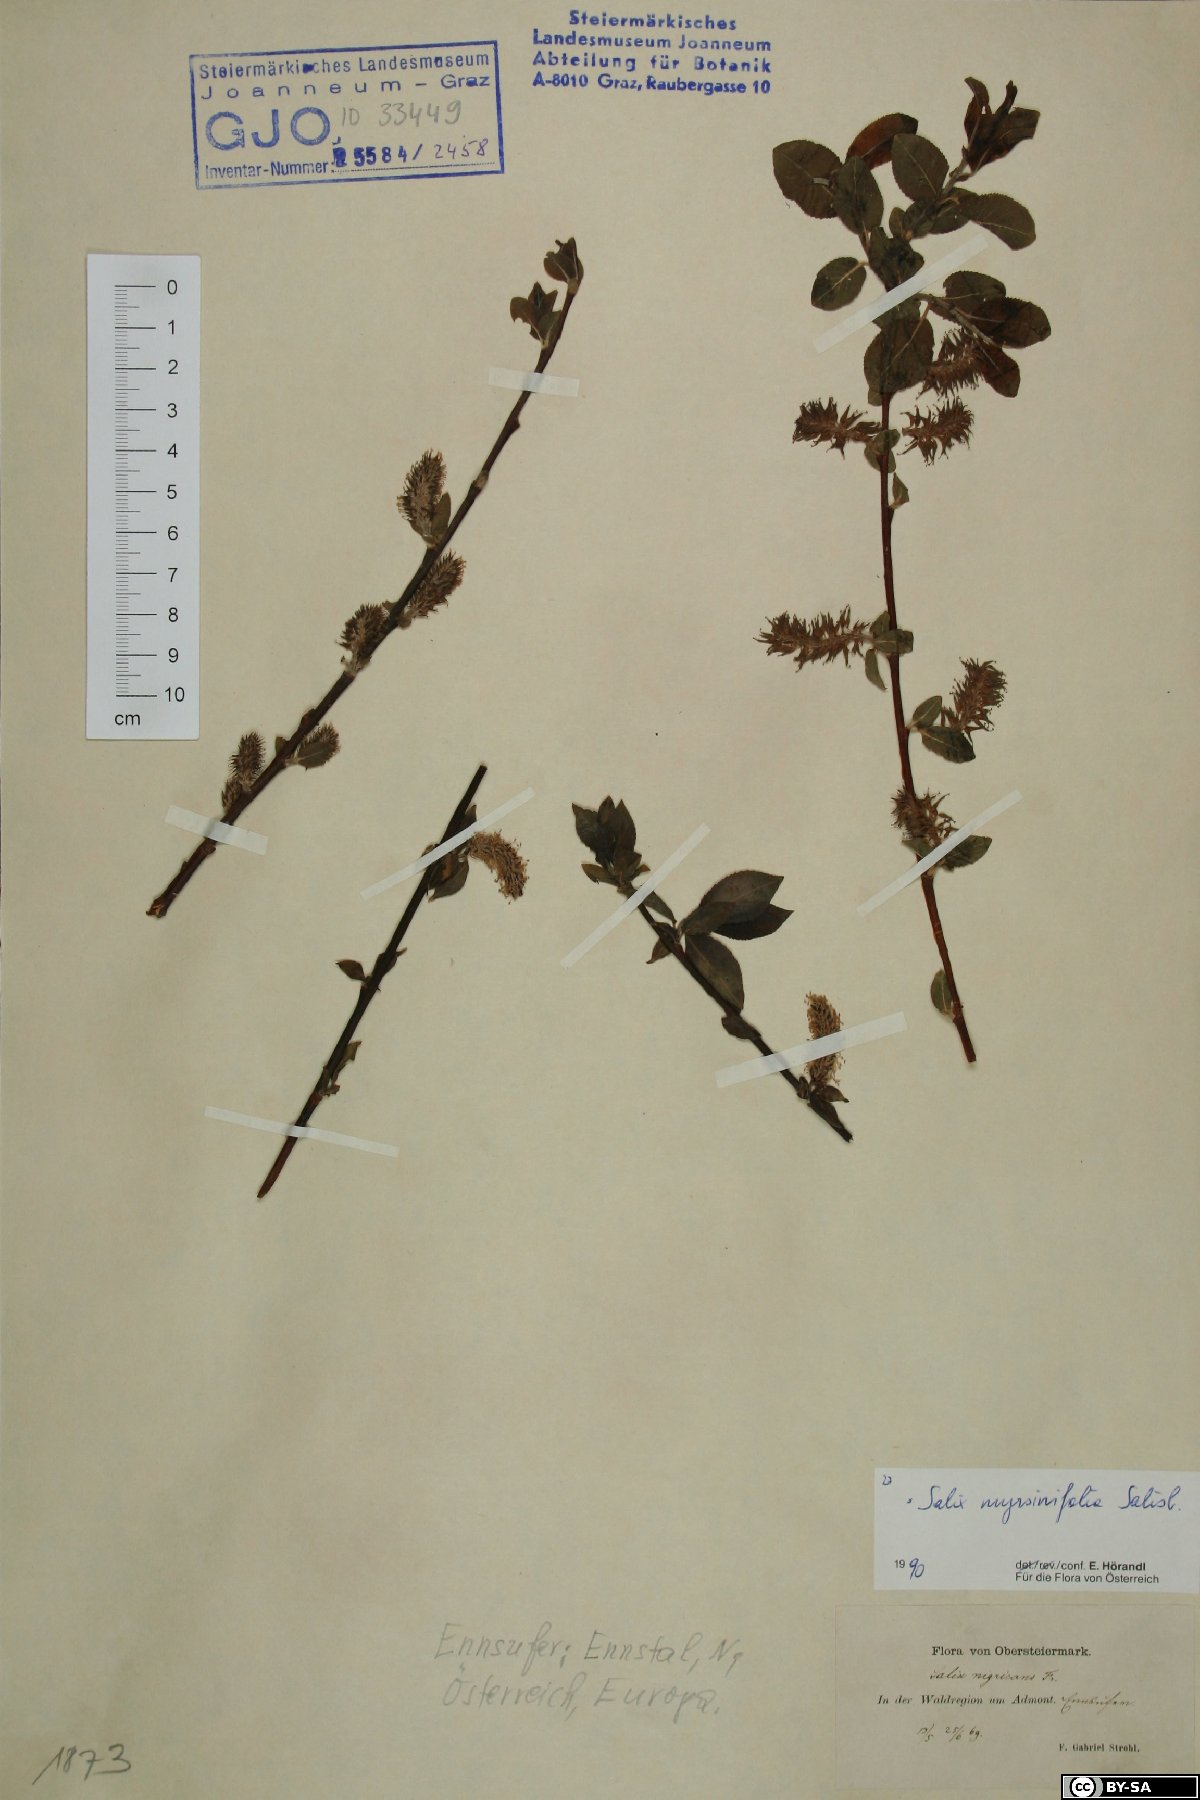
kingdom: Plantae
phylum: Tracheophyta
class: Magnoliopsida
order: Malpighiales
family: Salicaceae
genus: Salix
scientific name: Salix myrsinifolia
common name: Dark-leaved willow
